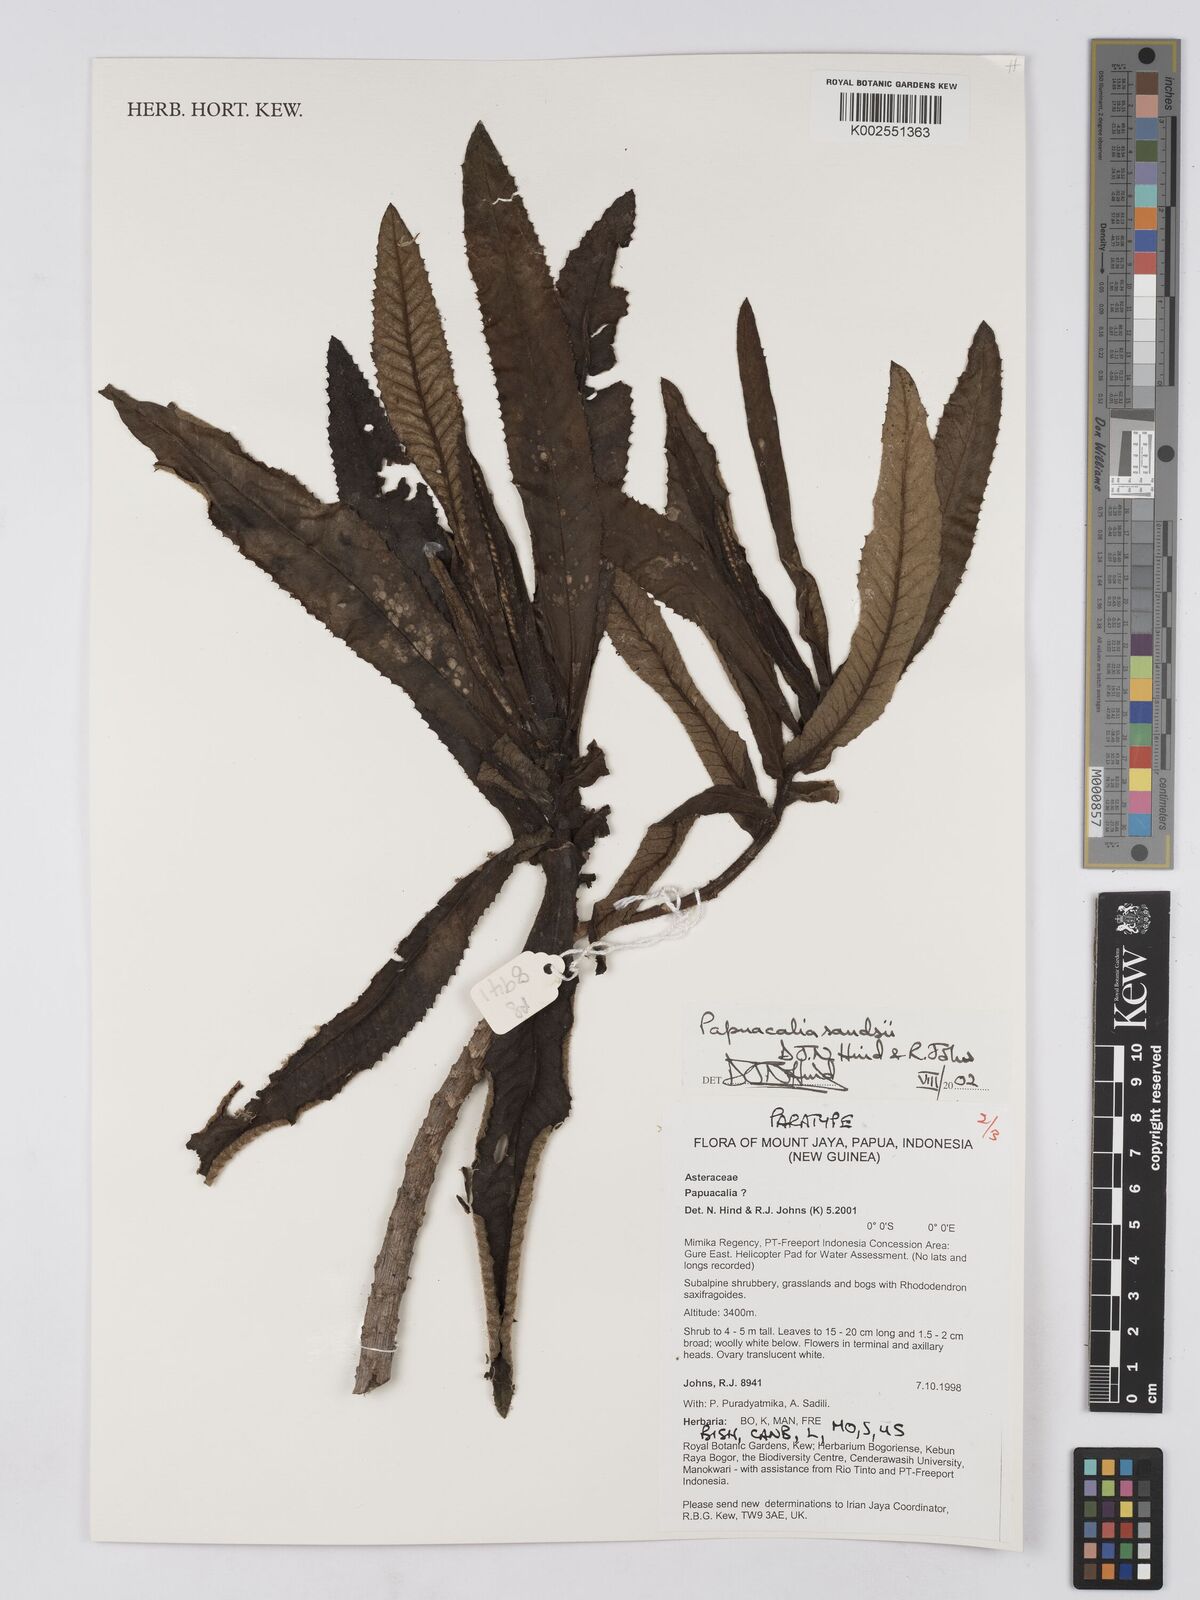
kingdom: Plantae
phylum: Tracheophyta
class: Magnoliopsida
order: Asterales
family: Asteraceae
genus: Papuacalia
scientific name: Papuacalia sandsii
